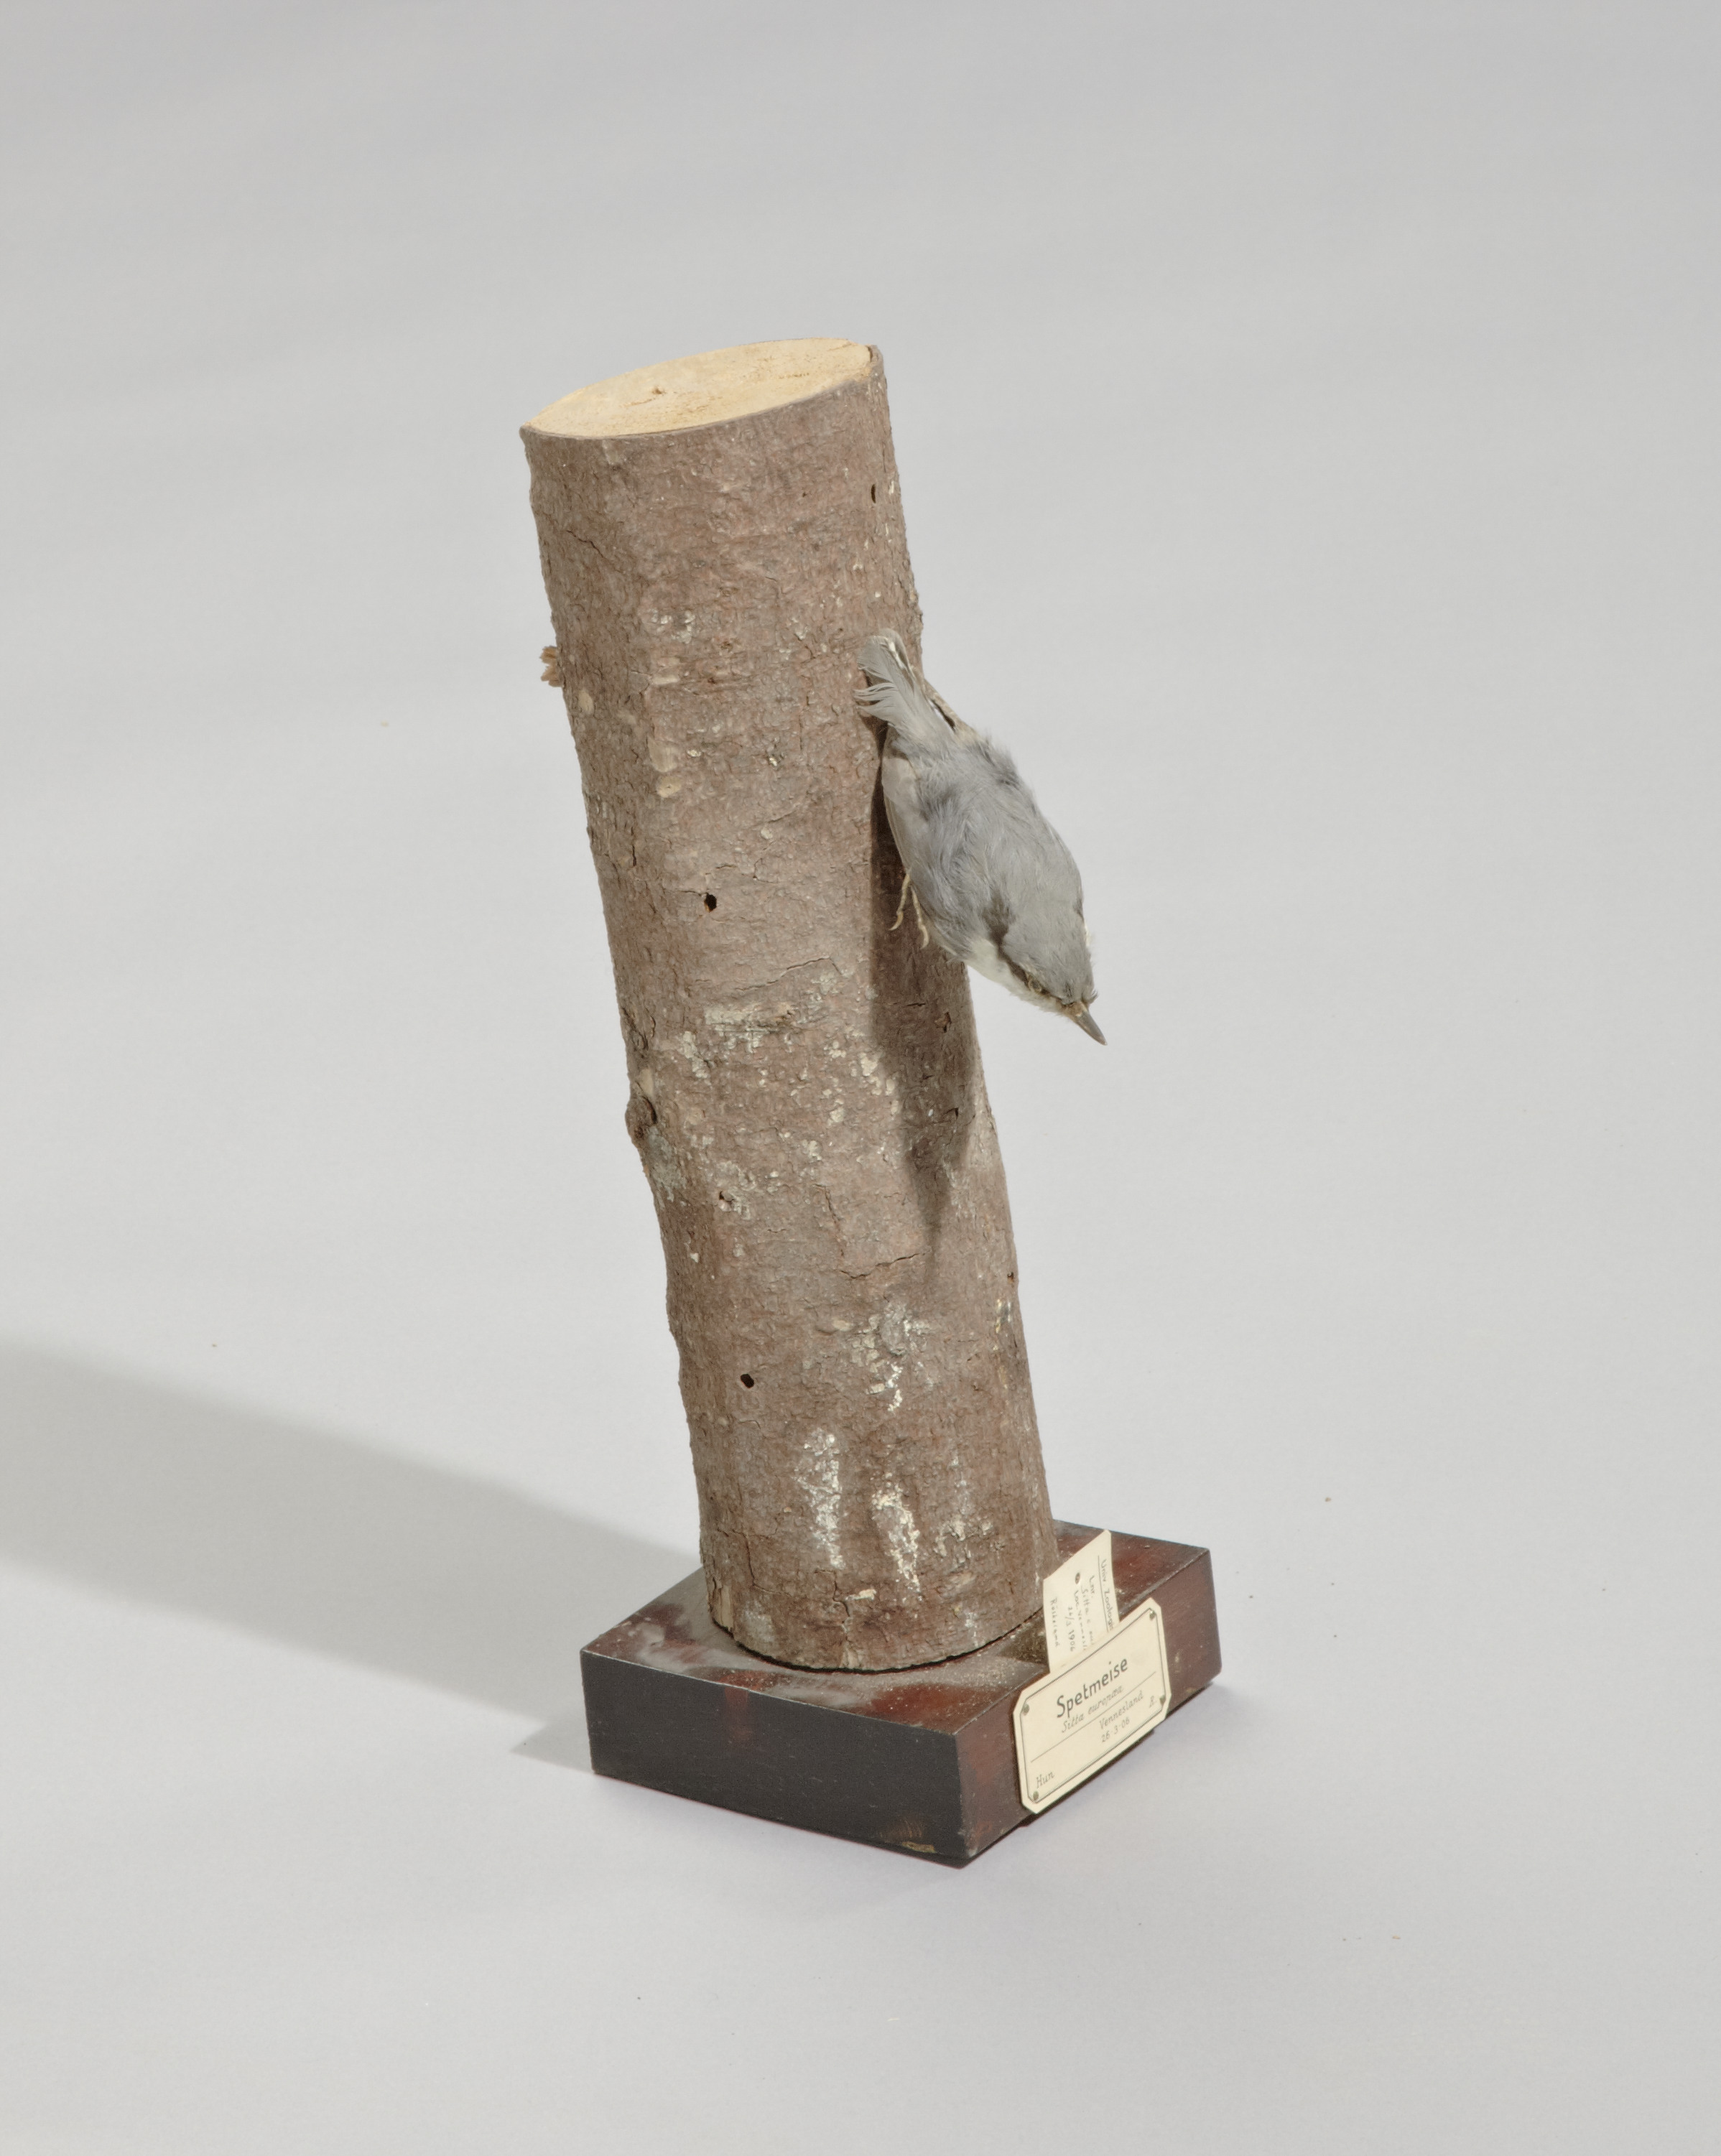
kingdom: Animalia
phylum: Chordata
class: Aves
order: Passeriformes
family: Sittidae
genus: Sitta
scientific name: Sitta europaea
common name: Eurasian nuthatch
